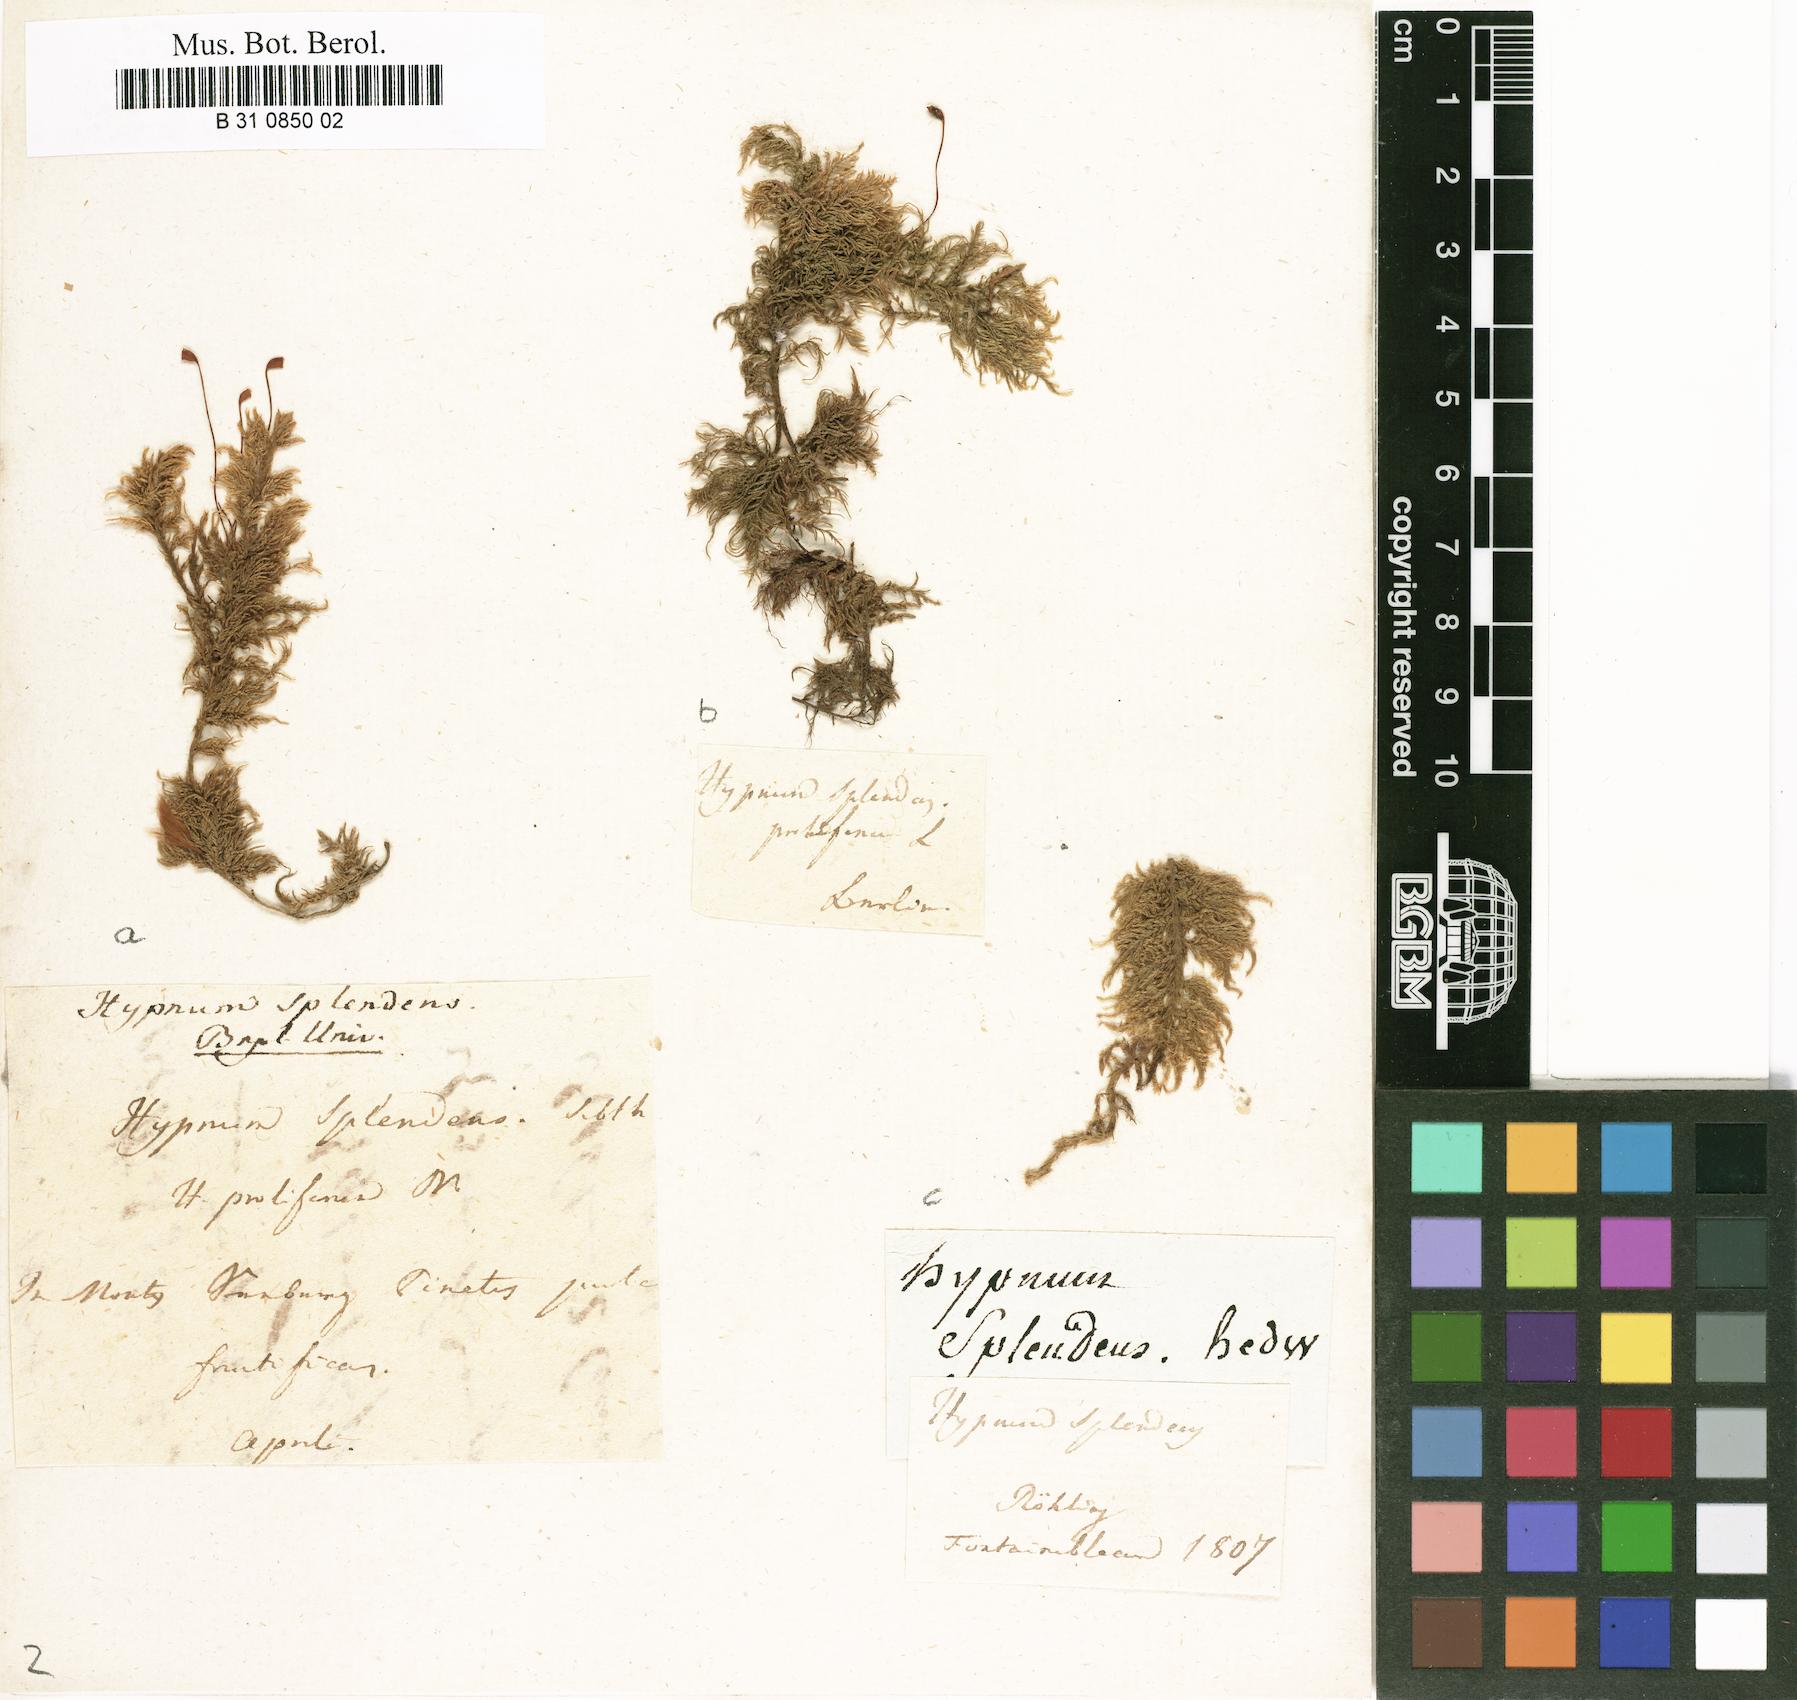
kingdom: Plantae
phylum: Bryophyta
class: Bryopsida
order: Hypnales
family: Hylocomiaceae
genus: Hylocomium
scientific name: Hylocomium splendens
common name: Stairstep moss
